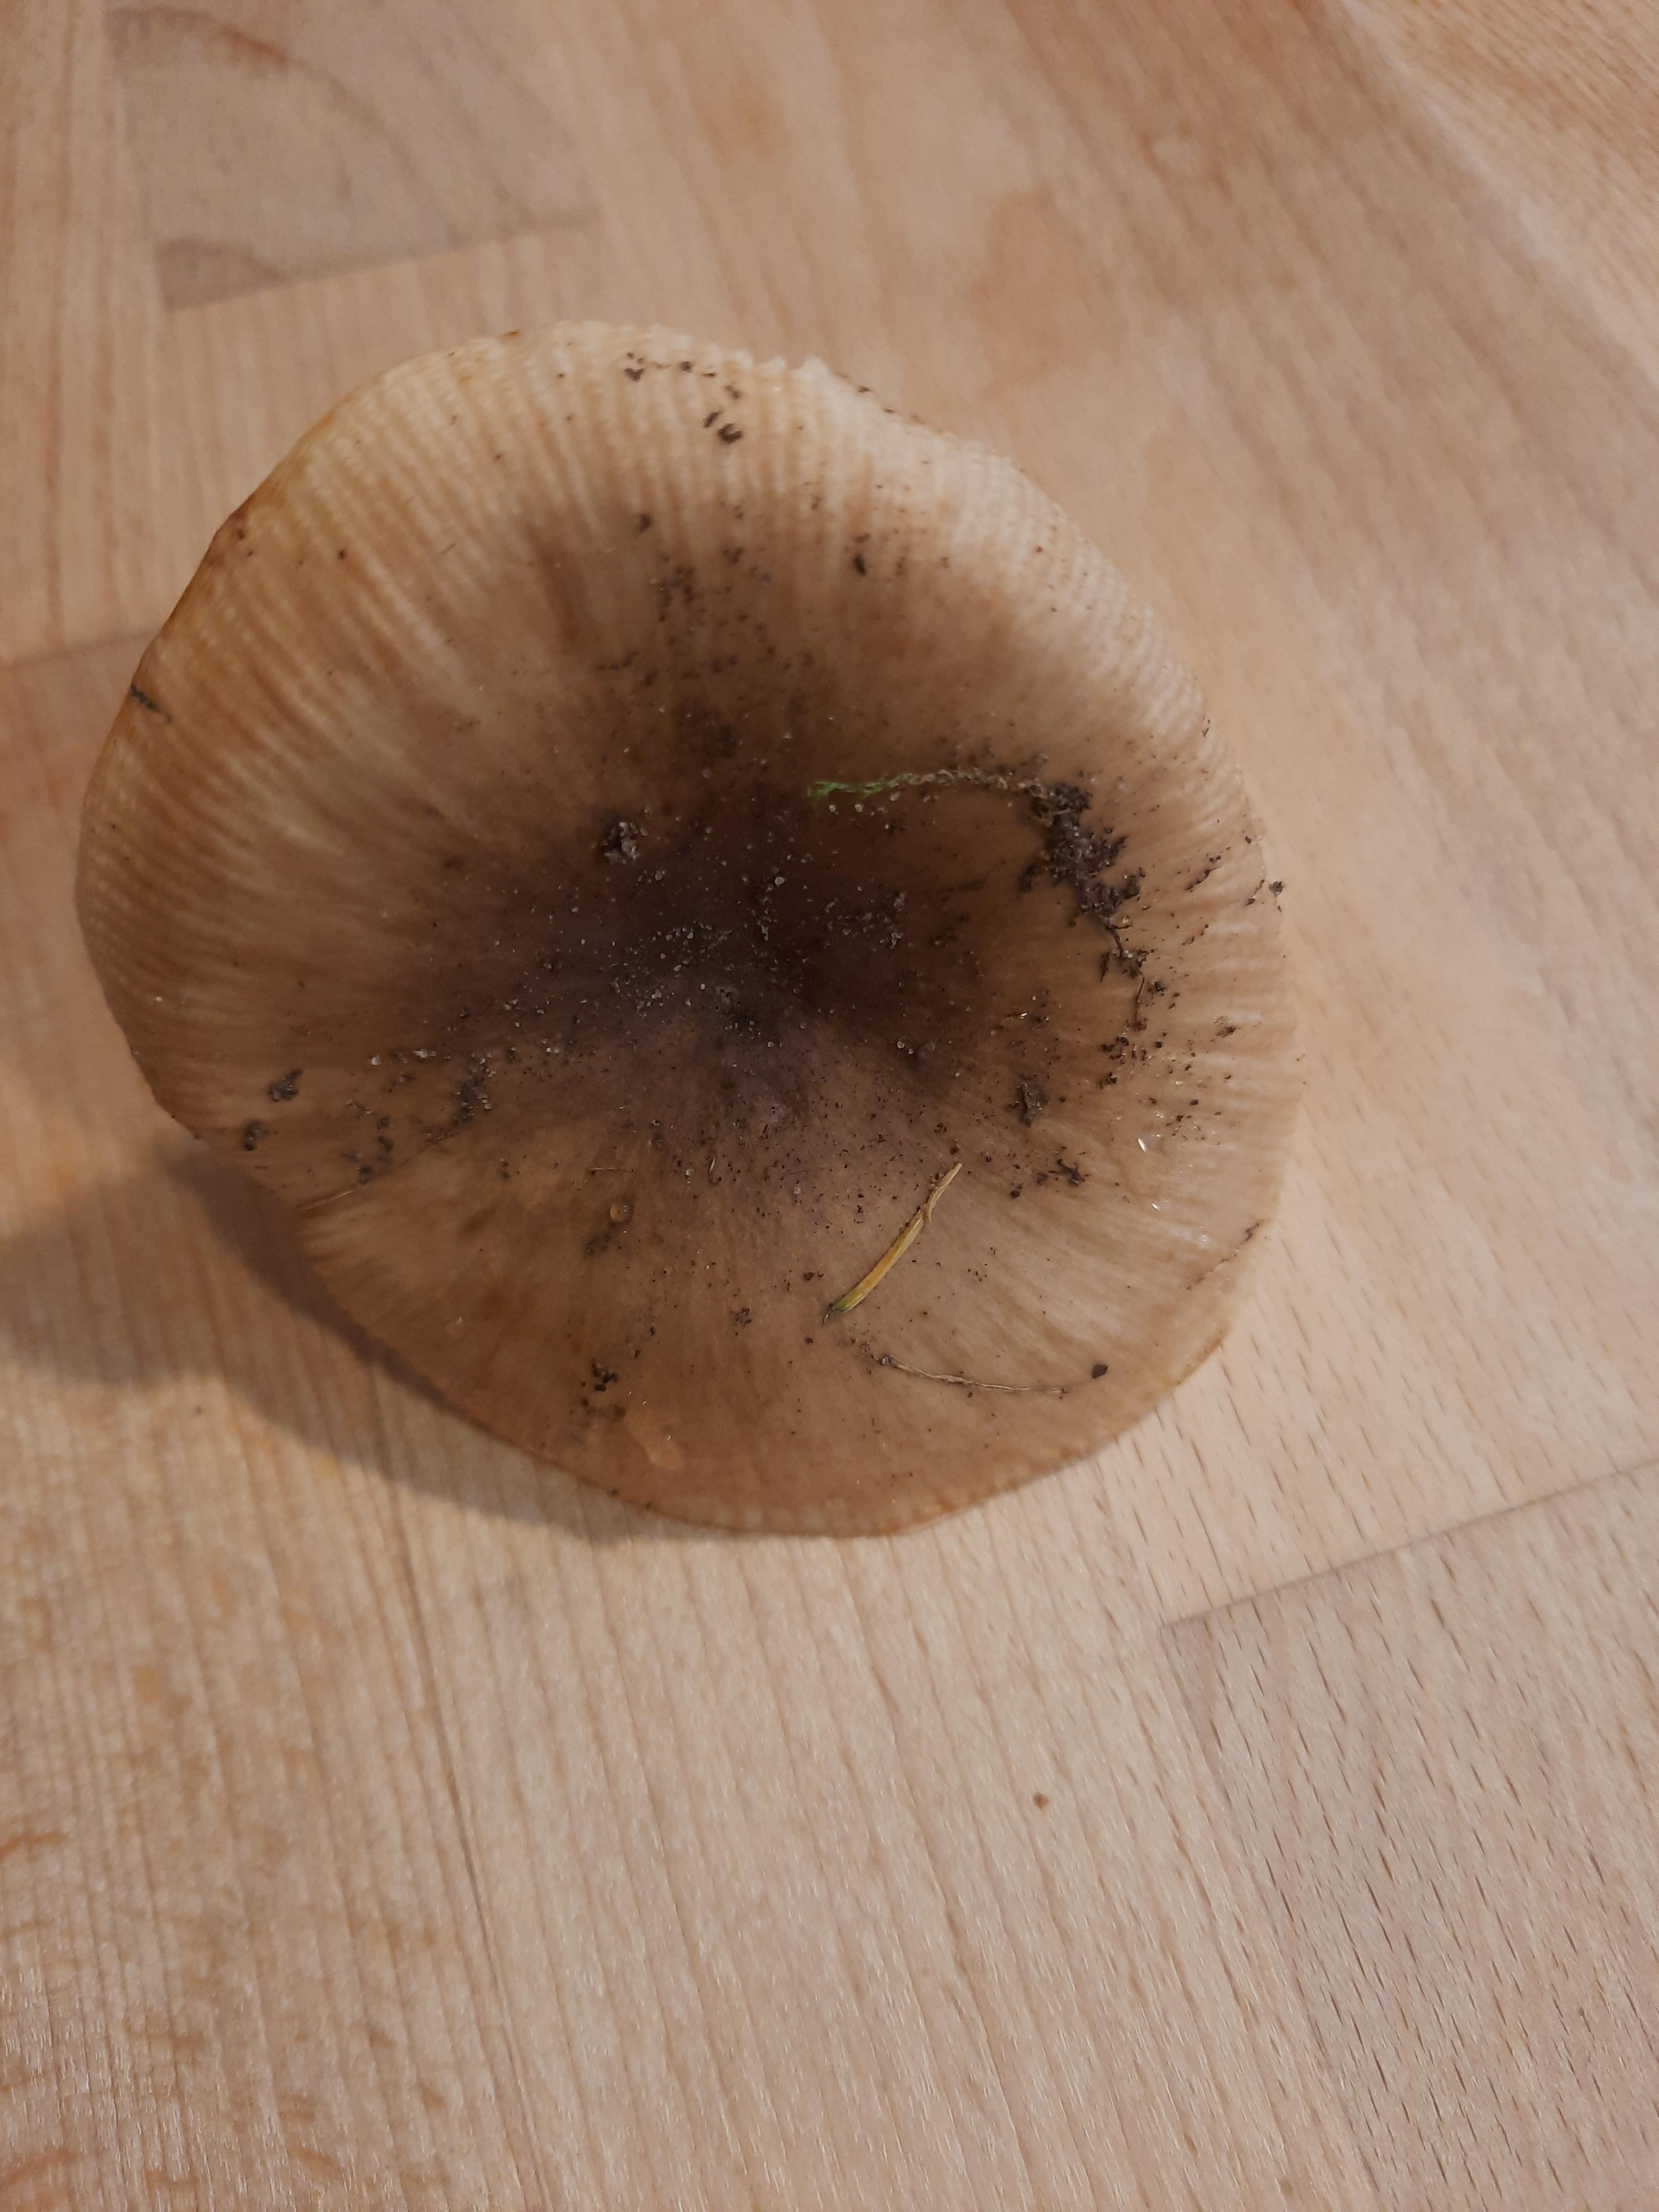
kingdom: Fungi
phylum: Basidiomycota
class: Agaricomycetes
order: Russulales
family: Russulaceae
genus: Russula
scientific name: Russula recondita
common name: mild kam-skørhat
